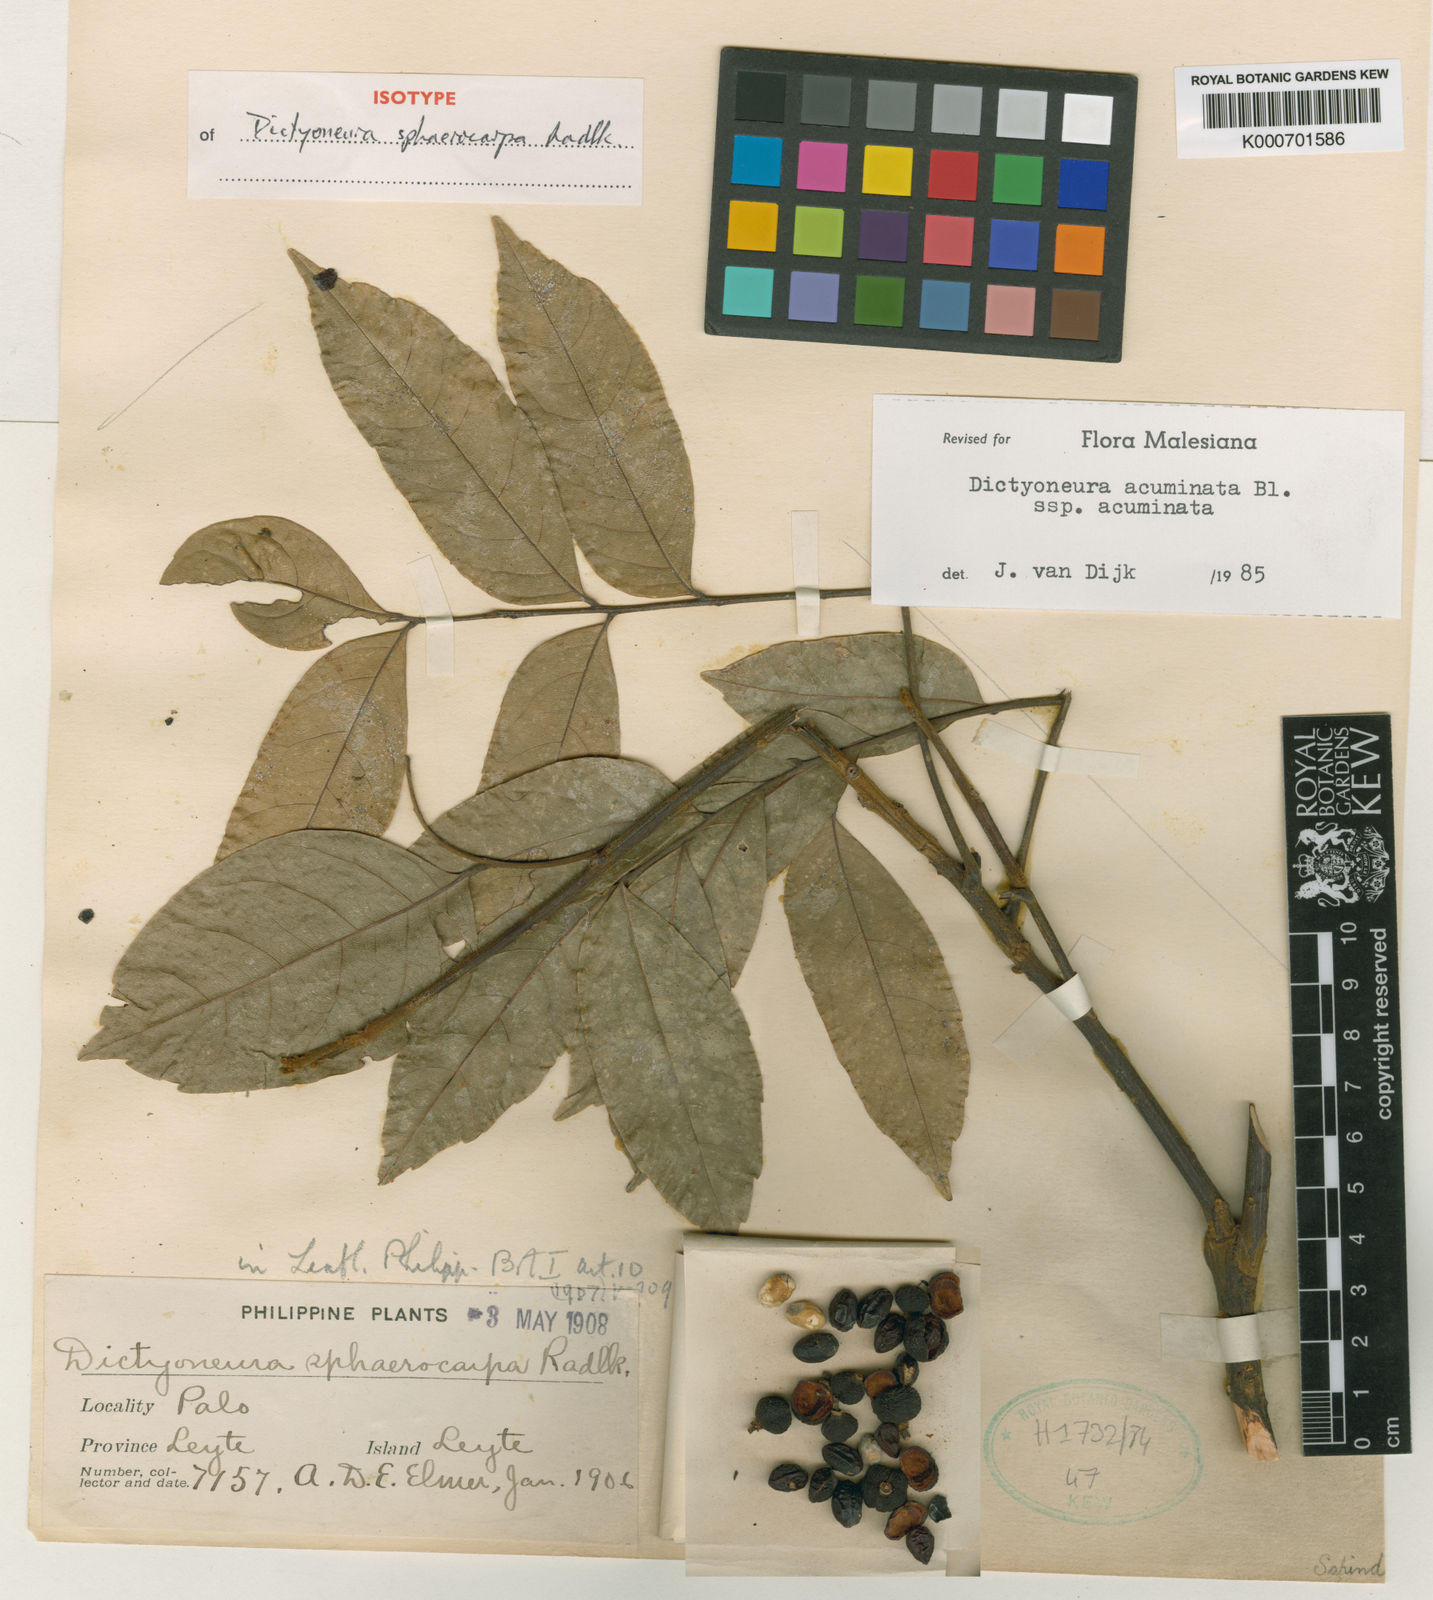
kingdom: Plantae
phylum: Tracheophyta
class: Magnoliopsida
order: Sapindales
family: Sapindaceae
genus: Dictyoneura
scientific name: Dictyoneura acuminata
